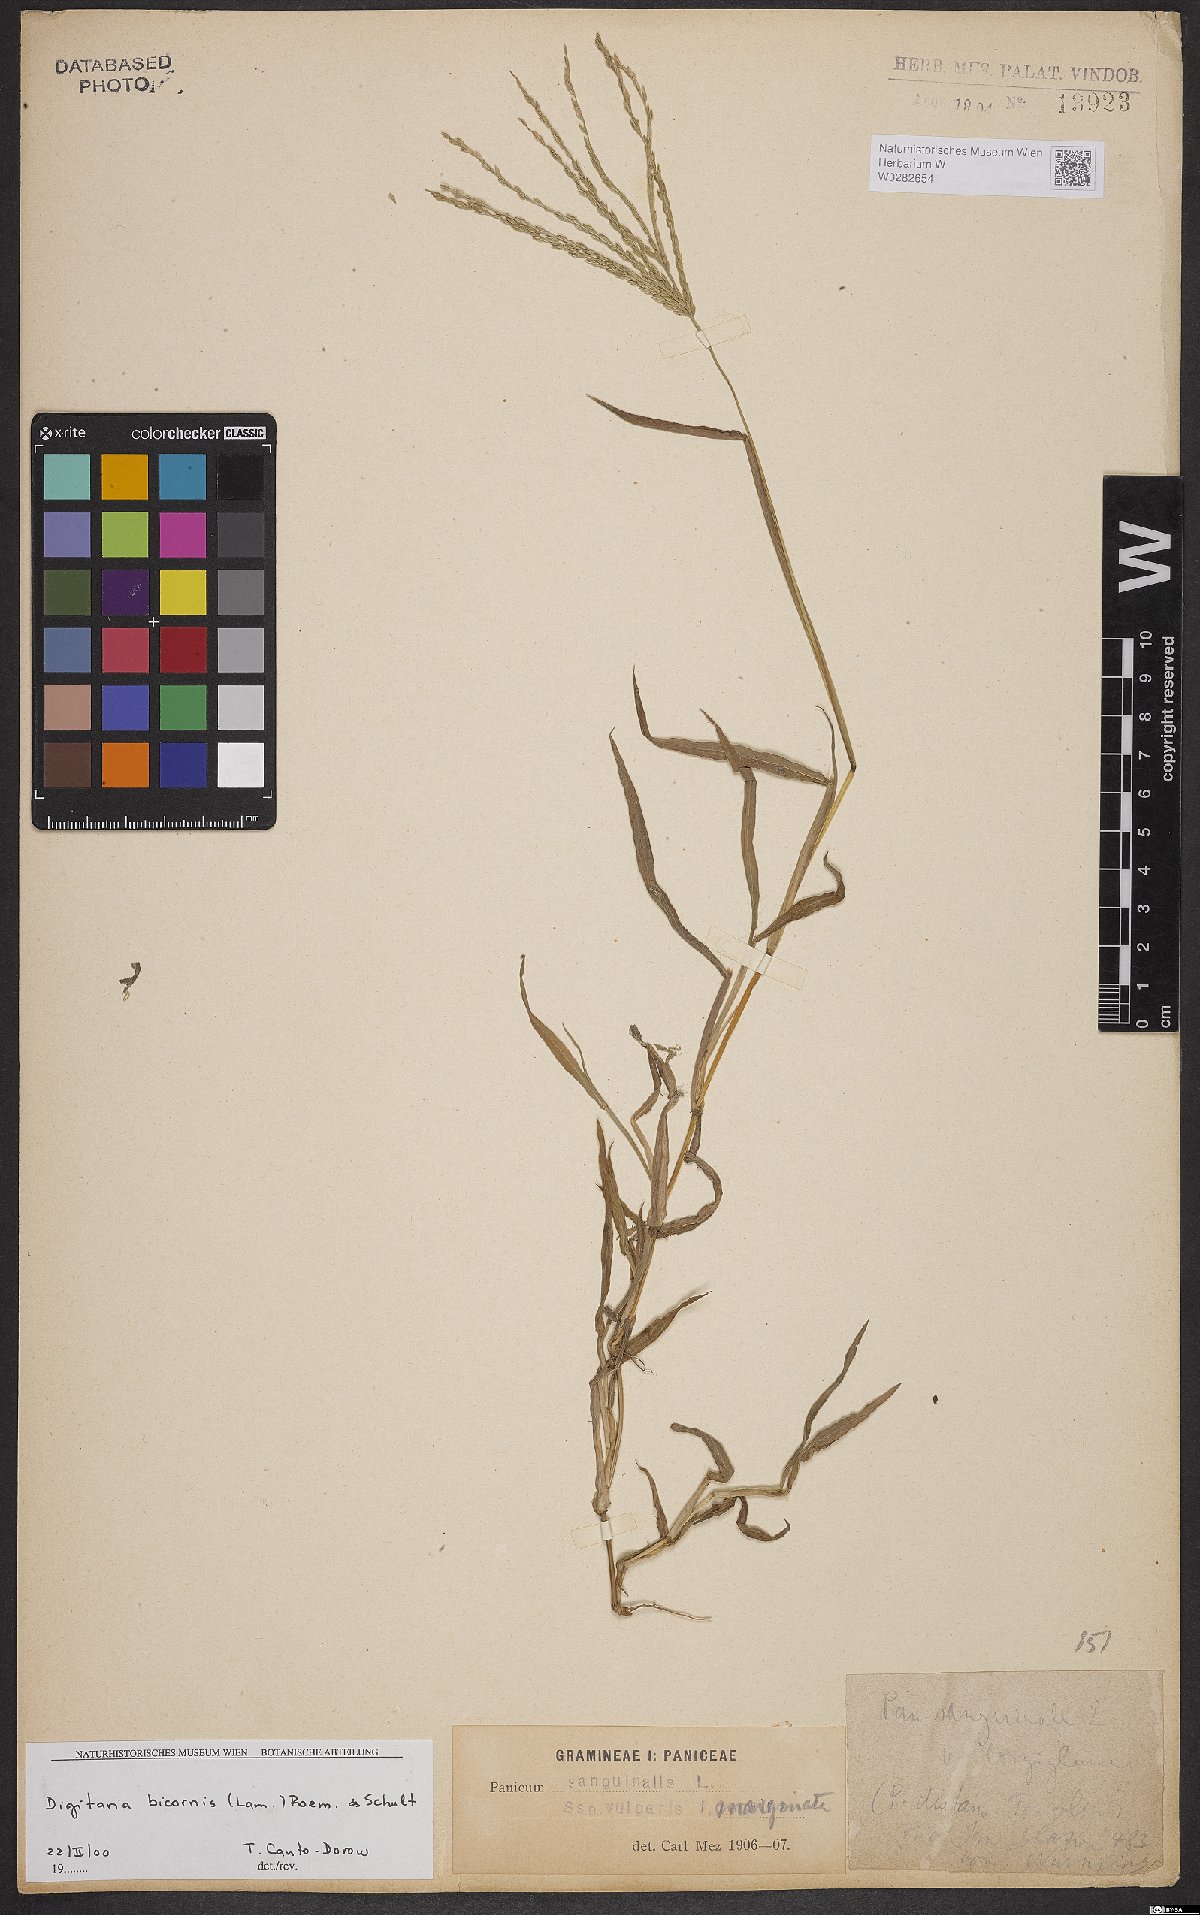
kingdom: Plantae
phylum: Tracheophyta
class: Liliopsida
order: Poales
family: Poaceae
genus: Digitaria
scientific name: Digitaria bicornis
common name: Asian crabgrass
